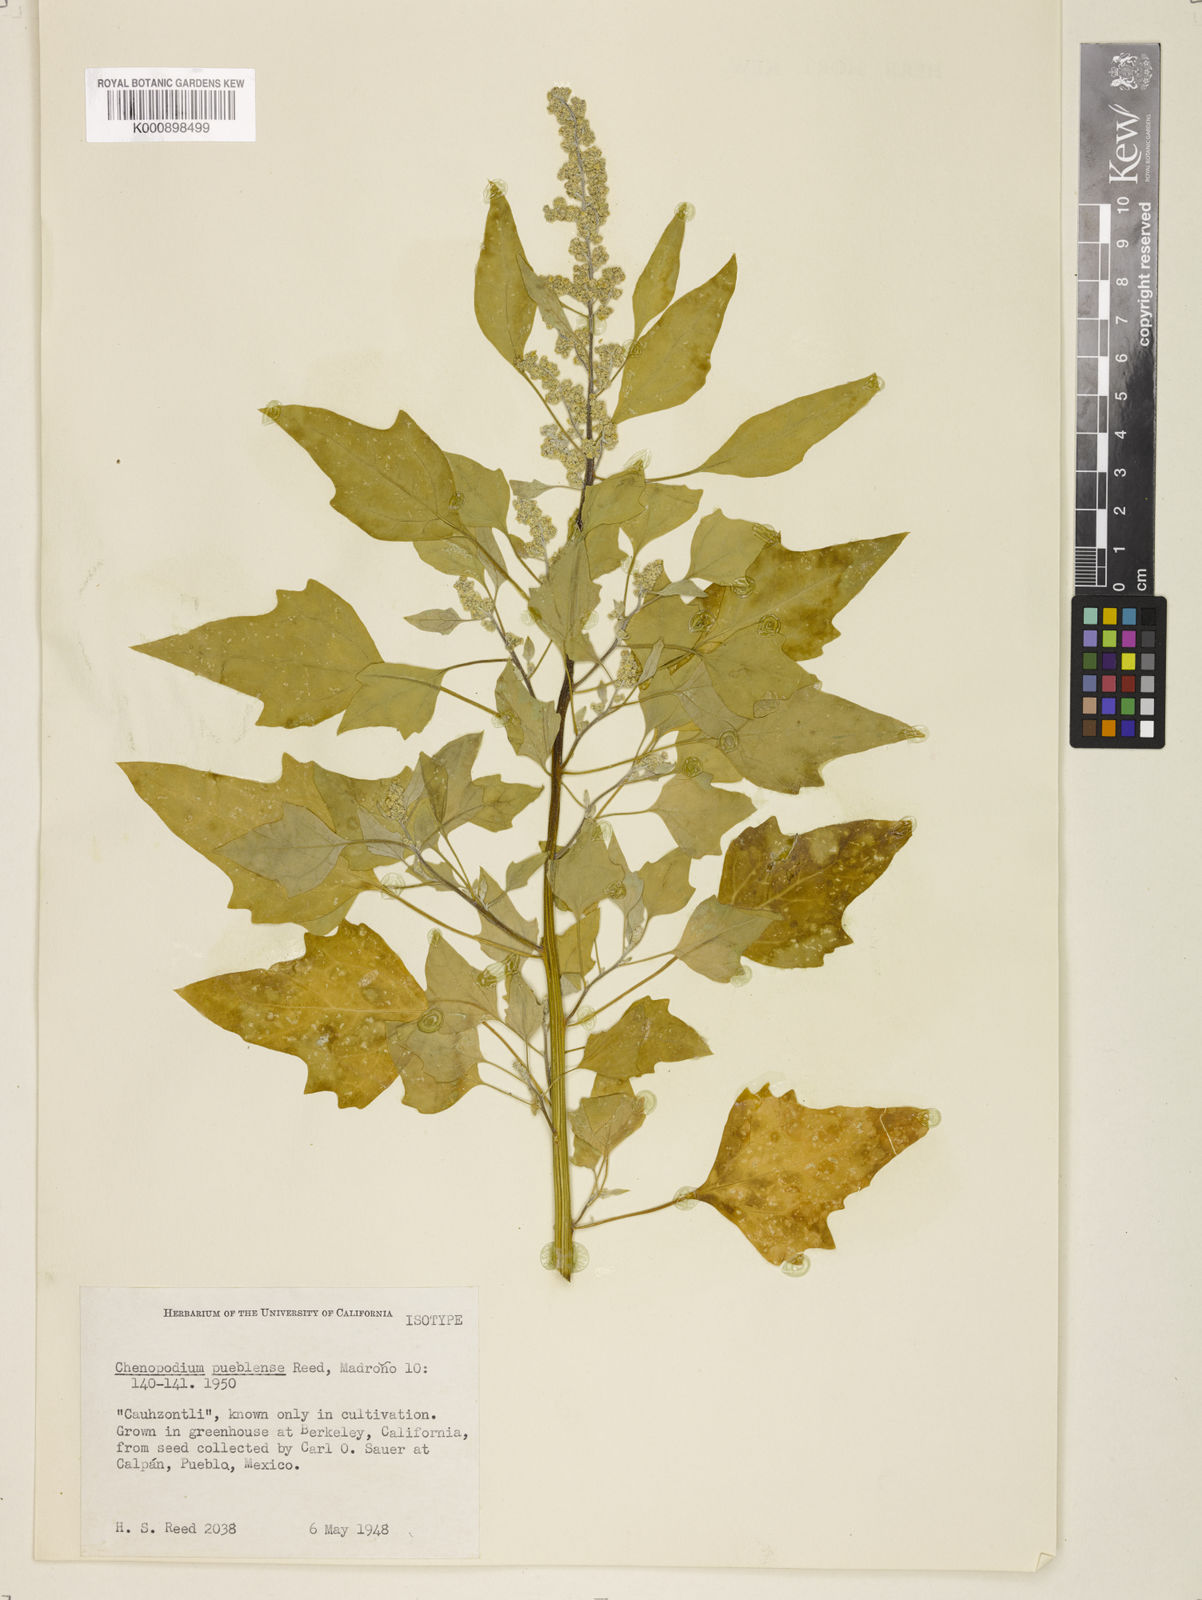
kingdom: Plantae
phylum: Tracheophyta
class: Magnoliopsida
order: Caryophyllales
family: Amaranthaceae
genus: Chenopodium
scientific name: Chenopodium pueblense
